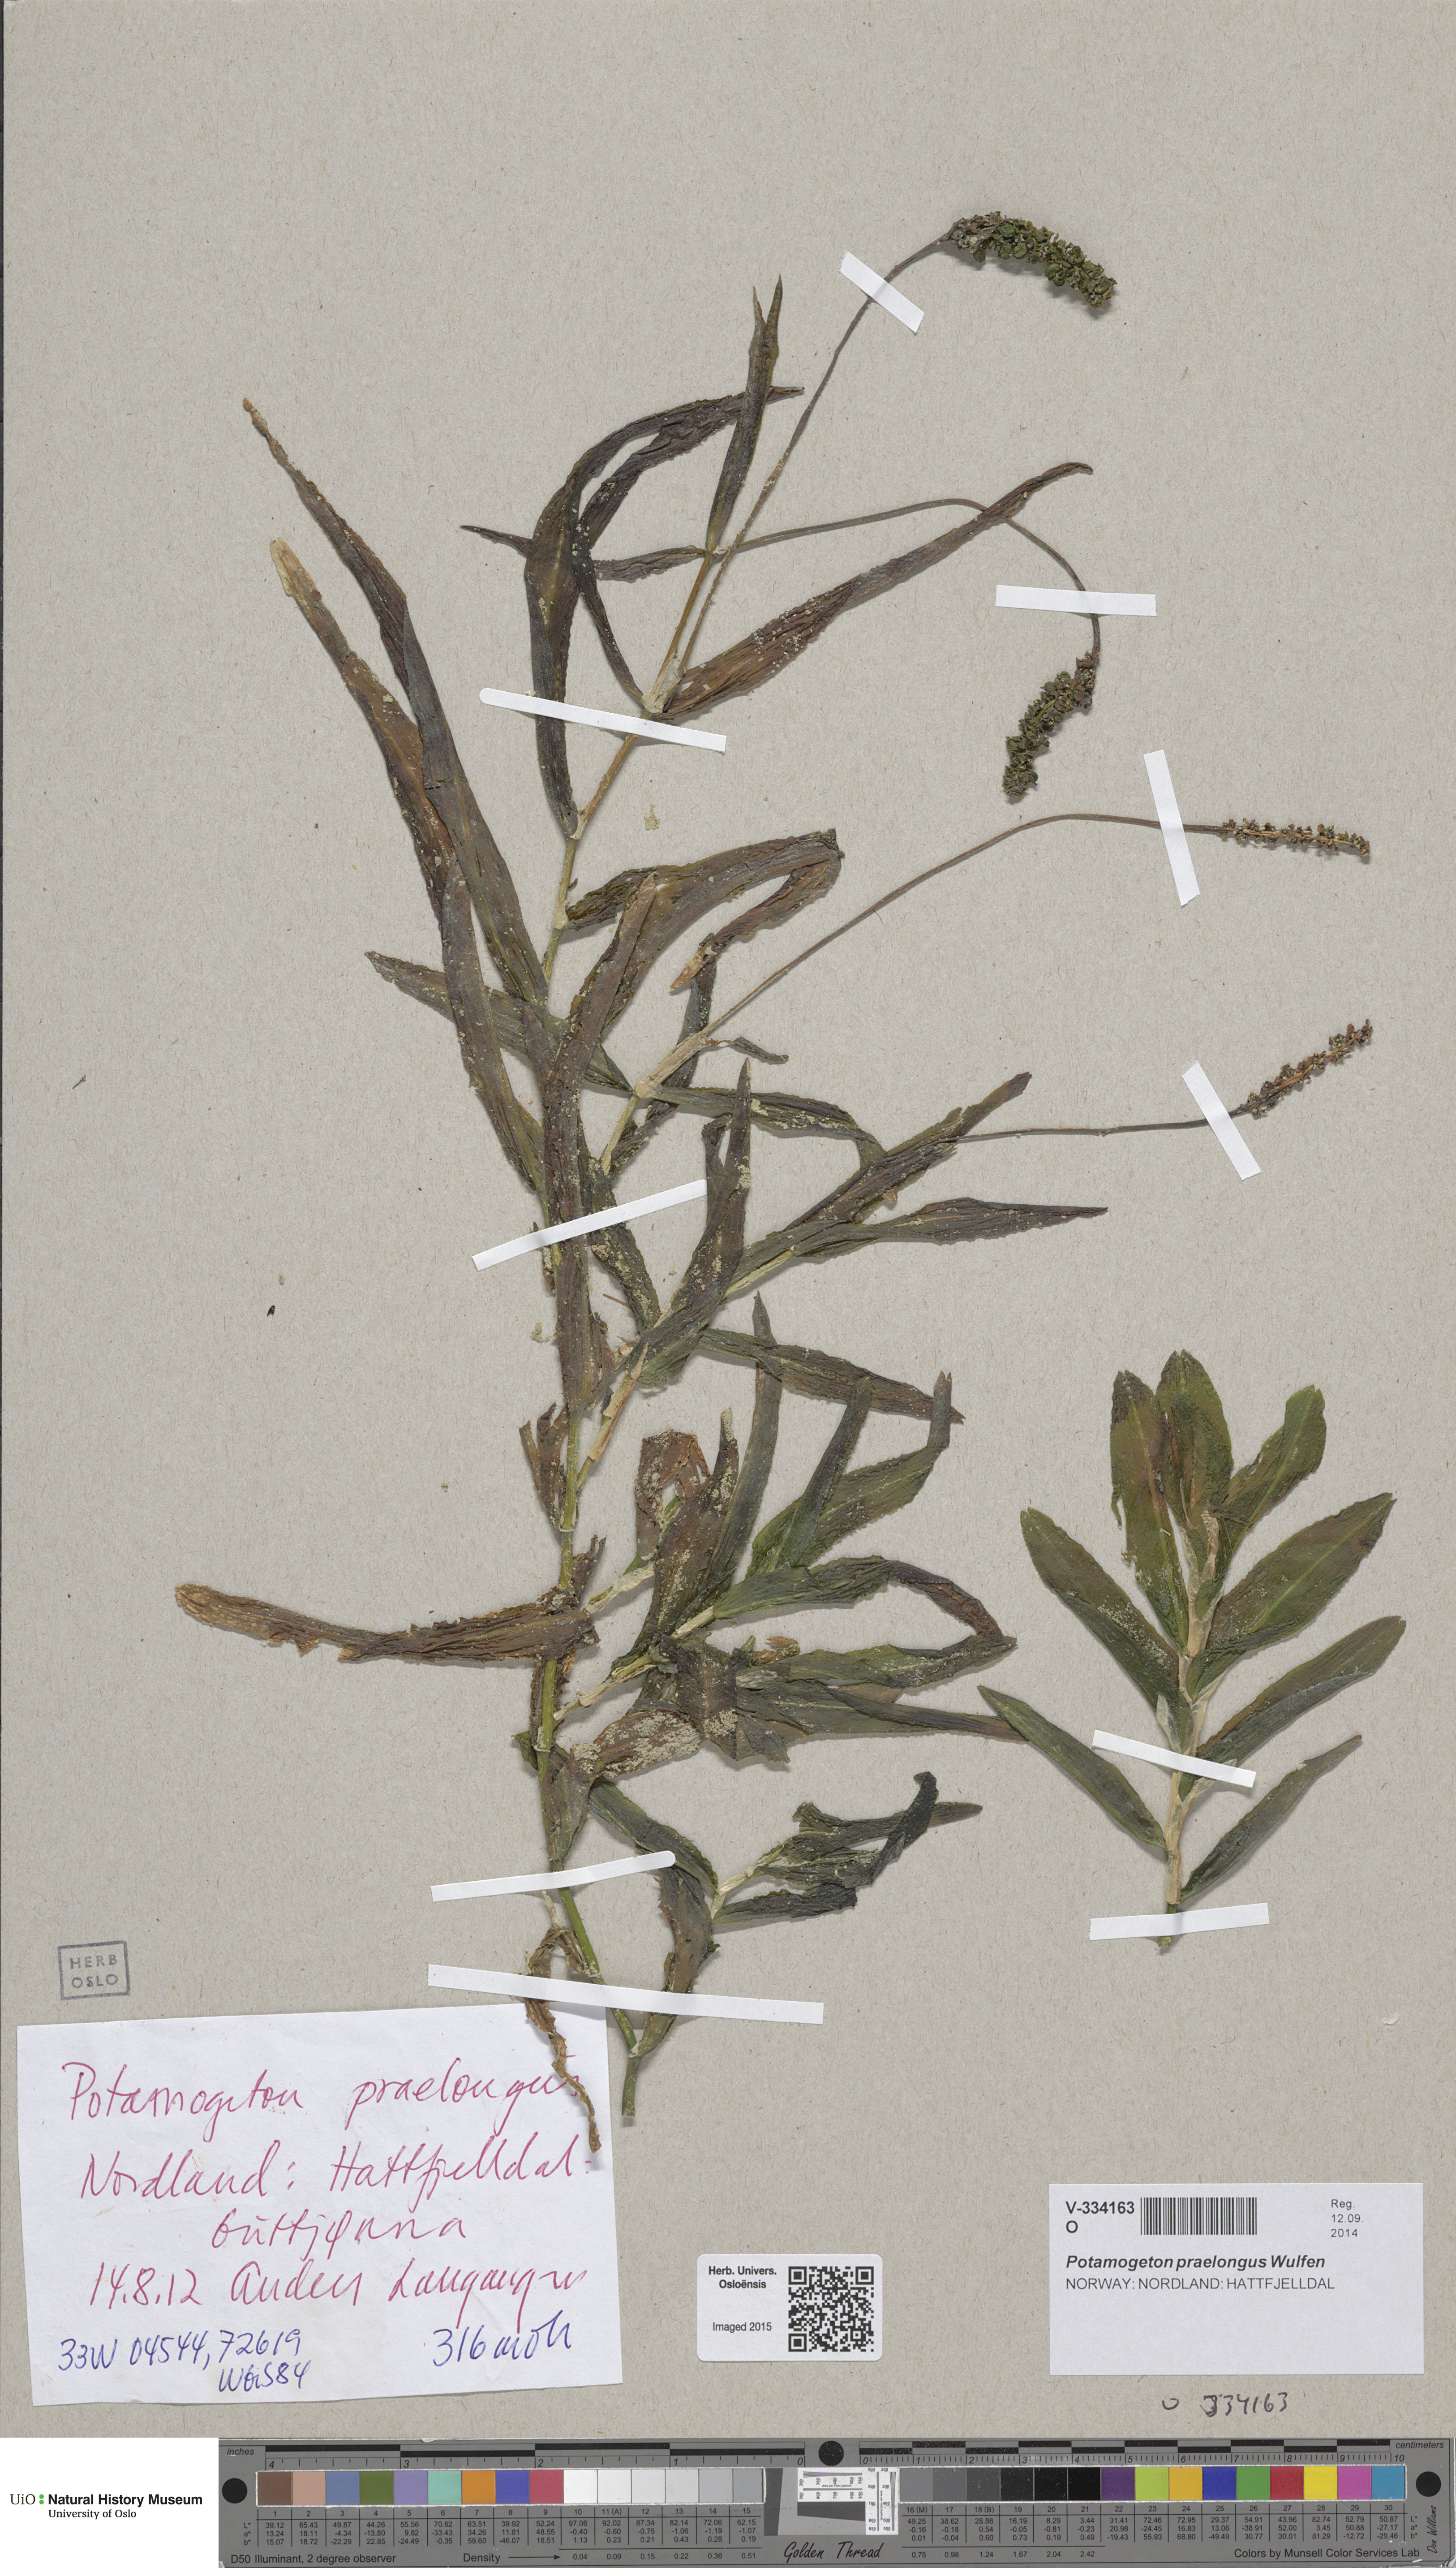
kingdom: Plantae
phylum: Tracheophyta
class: Liliopsida
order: Alismatales
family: Potamogetonaceae
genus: Potamogeton
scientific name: Potamogeton praelongus
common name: Long-stalked pondweed
